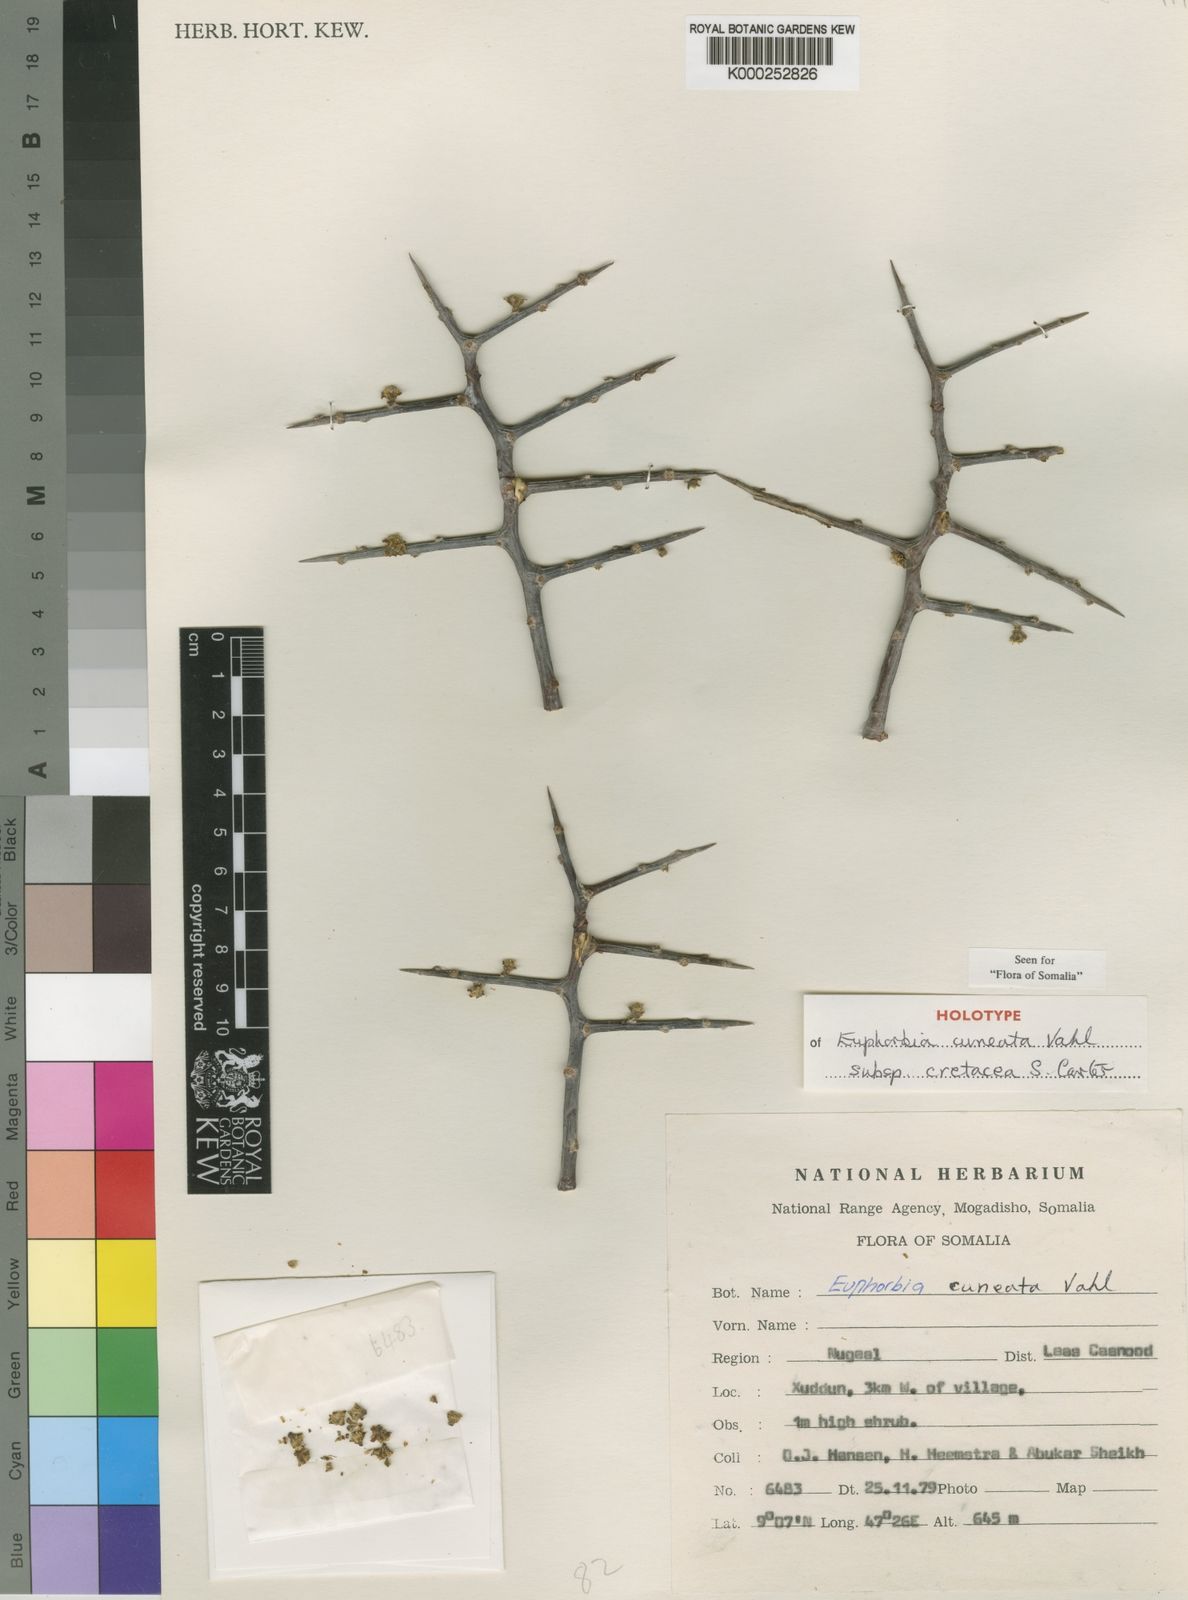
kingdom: Plantae
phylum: Tracheophyta
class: Magnoliopsida
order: Malpighiales
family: Euphorbiaceae
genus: Euphorbia
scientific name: Euphorbia cuneata
